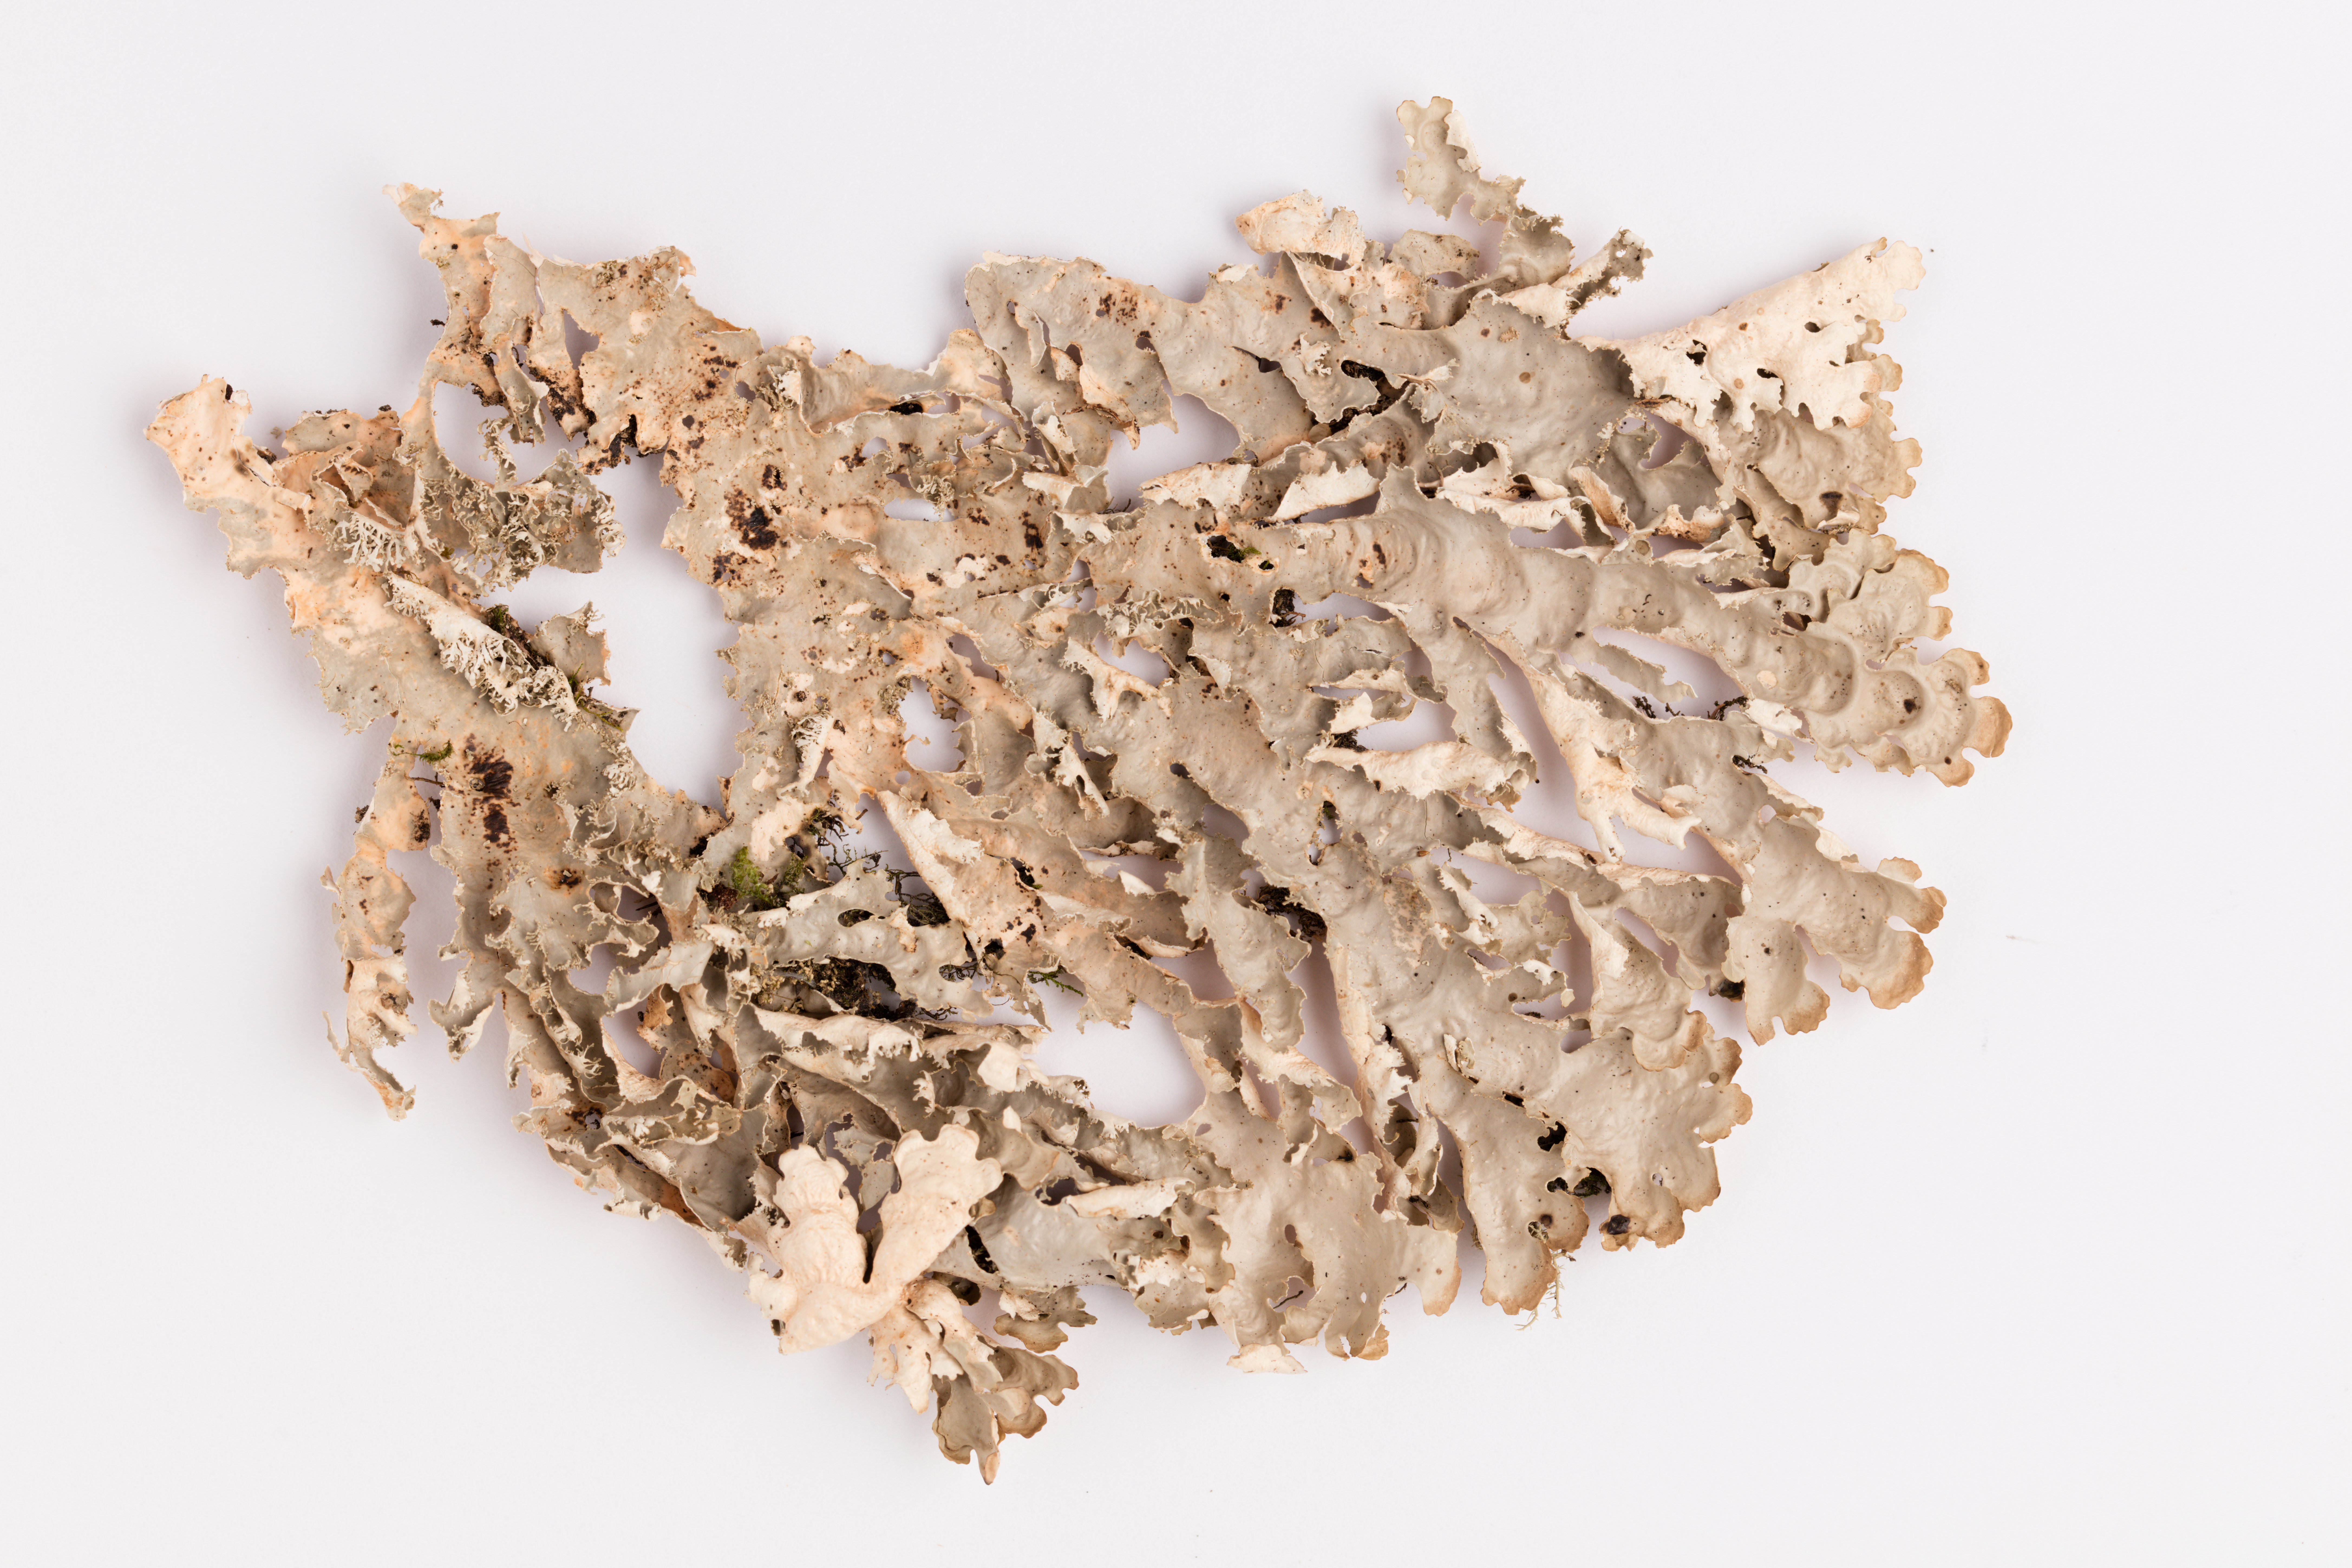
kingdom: Fungi
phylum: Ascomycota
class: Lecanoromycetes
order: Peltigerales
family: Lobariaceae
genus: Pseudocyphellaria
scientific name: Pseudocyphellaria chloroleuca
